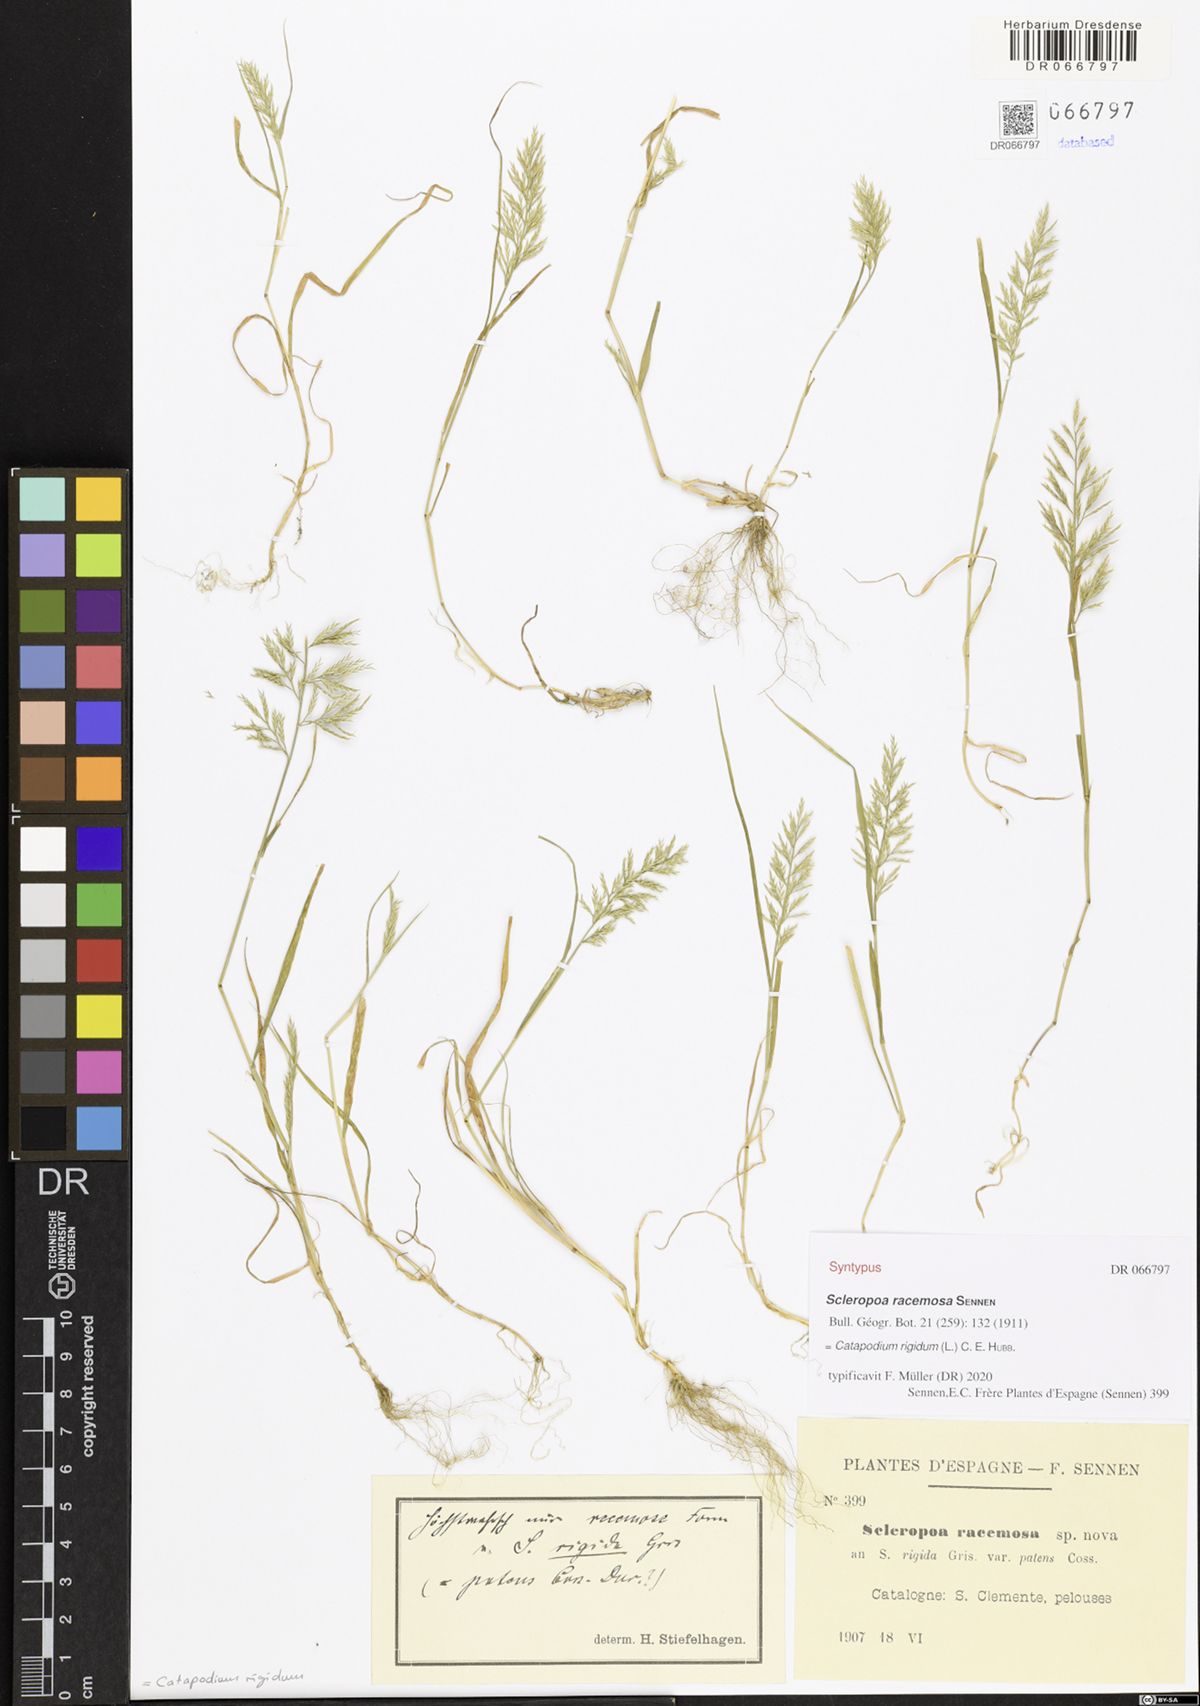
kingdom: Plantae
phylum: Tracheophyta
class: Liliopsida
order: Poales
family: Poaceae
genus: Catapodium
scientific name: Catapodium rigidum
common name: Fern-grass
